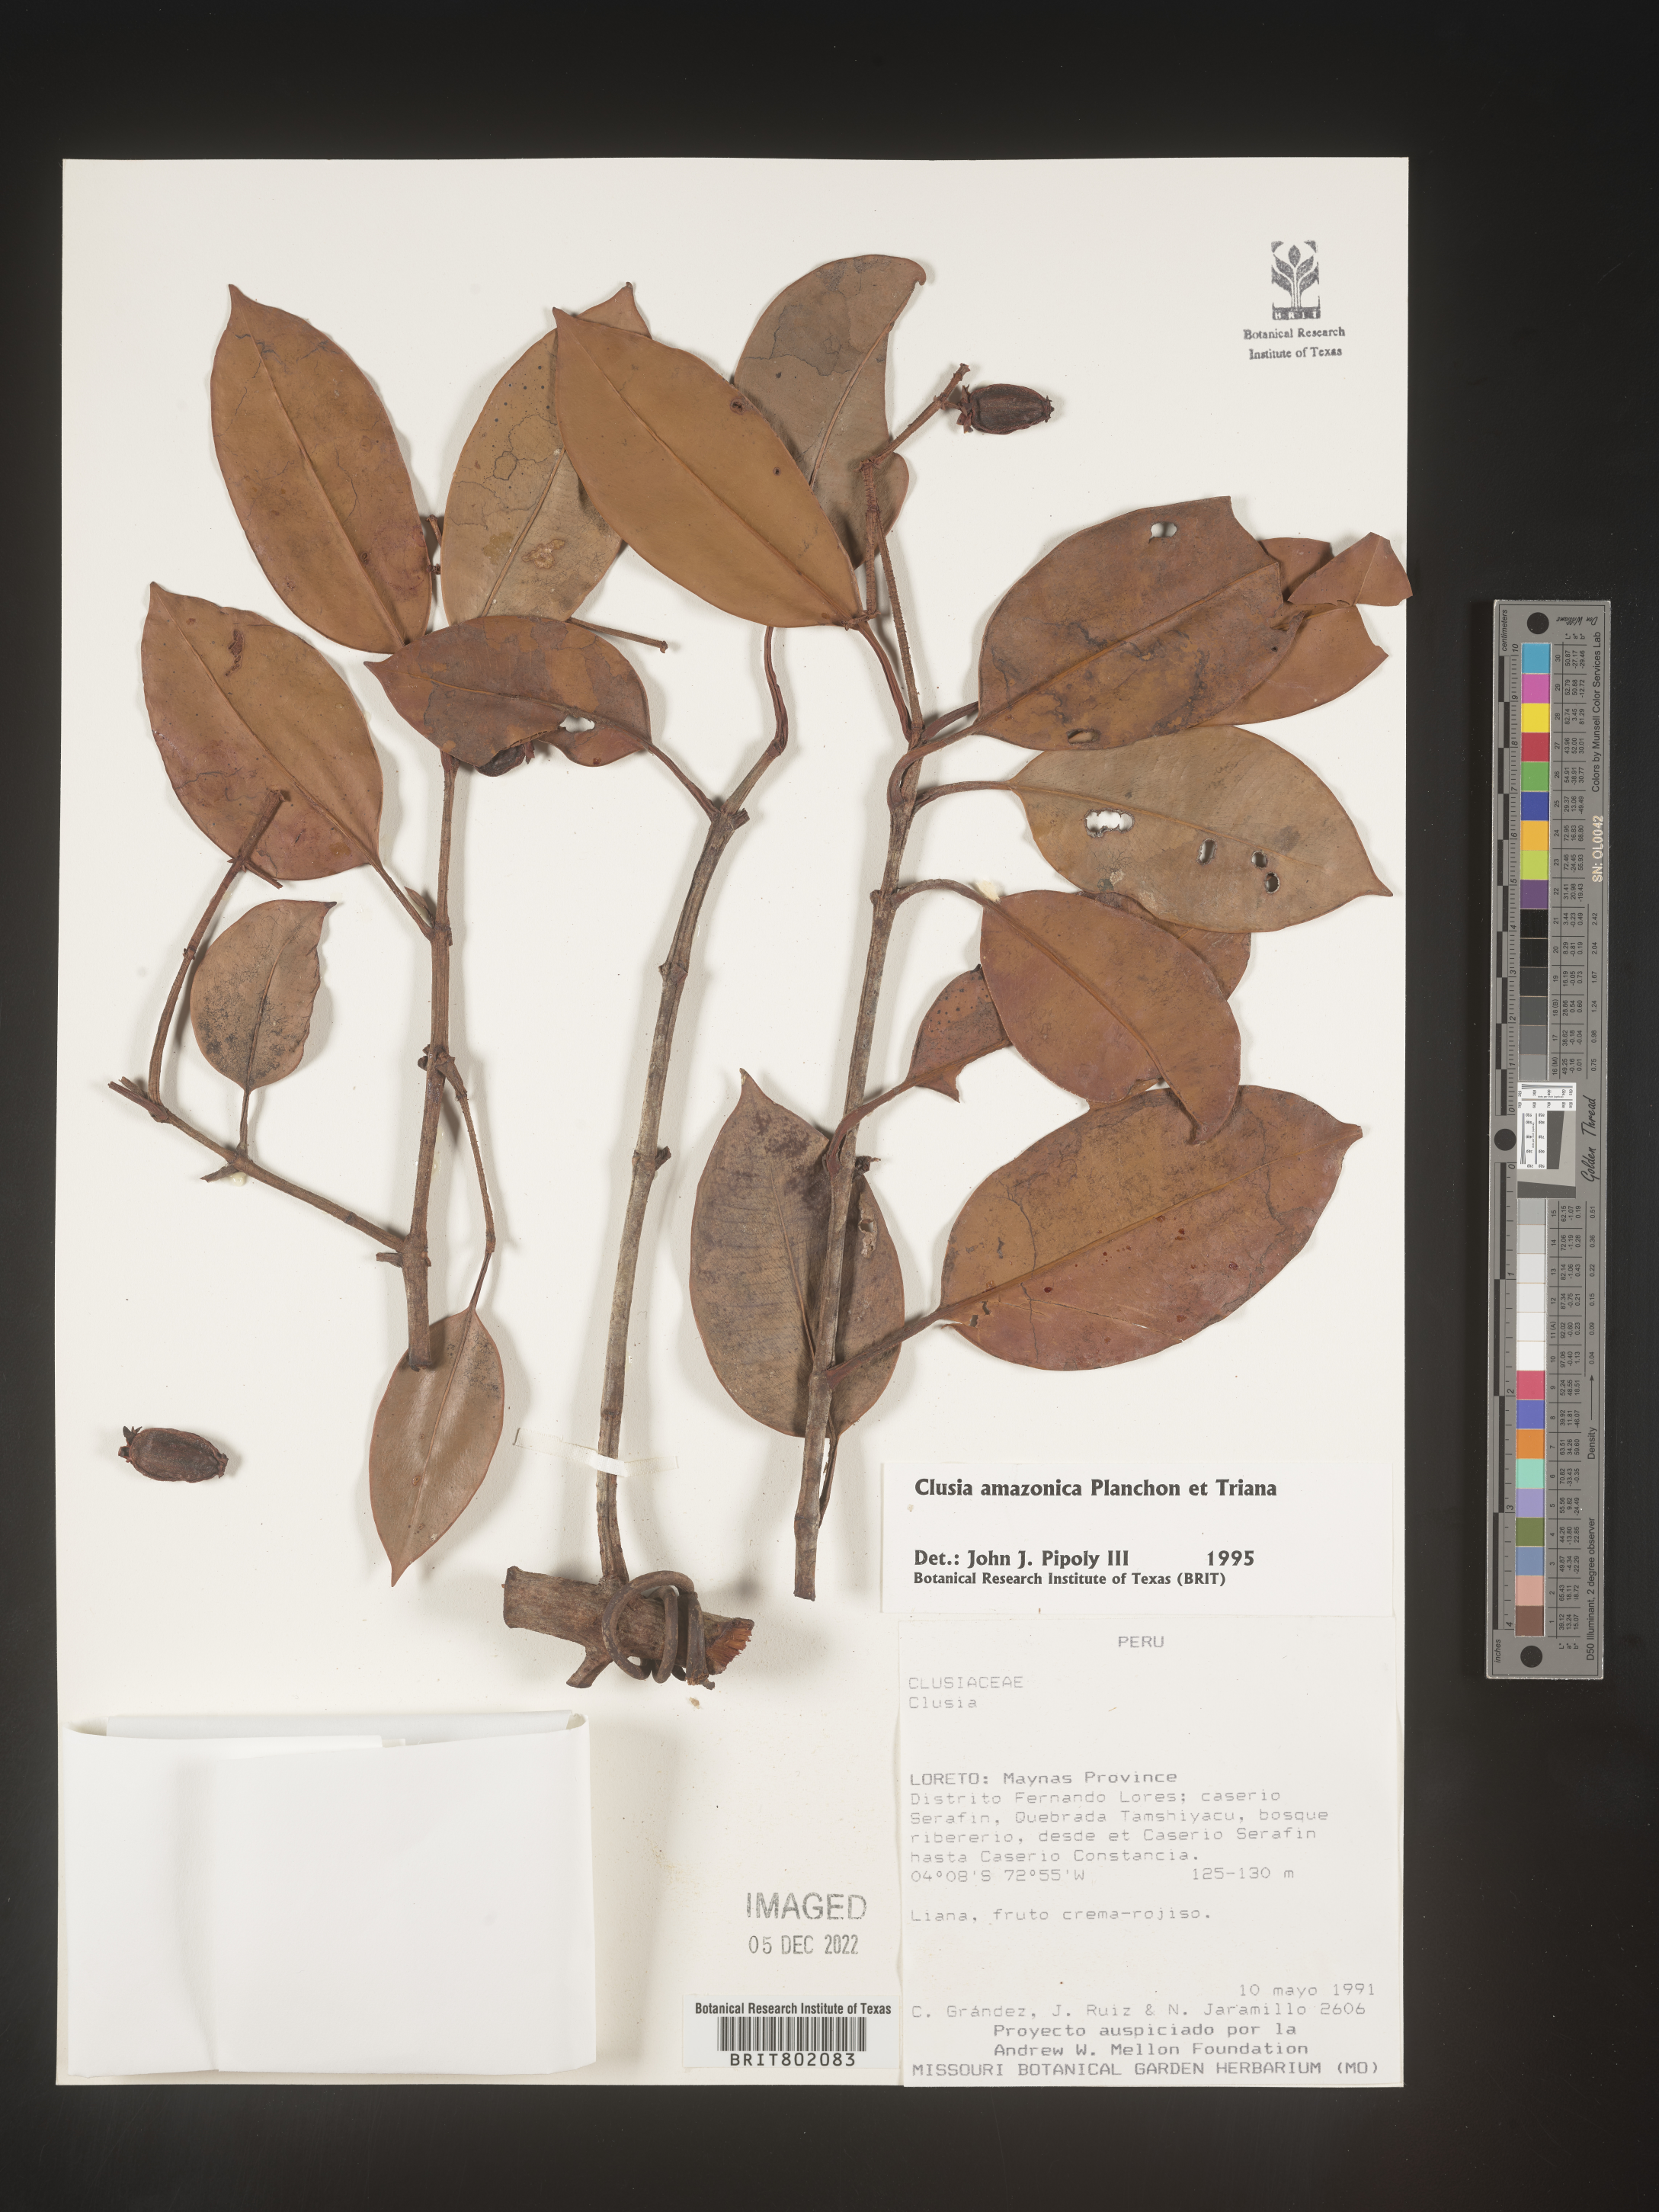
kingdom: Plantae
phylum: Tracheophyta
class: Magnoliopsida
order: Malpighiales
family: Clusiaceae
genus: Clusia
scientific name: Clusia amazonica
